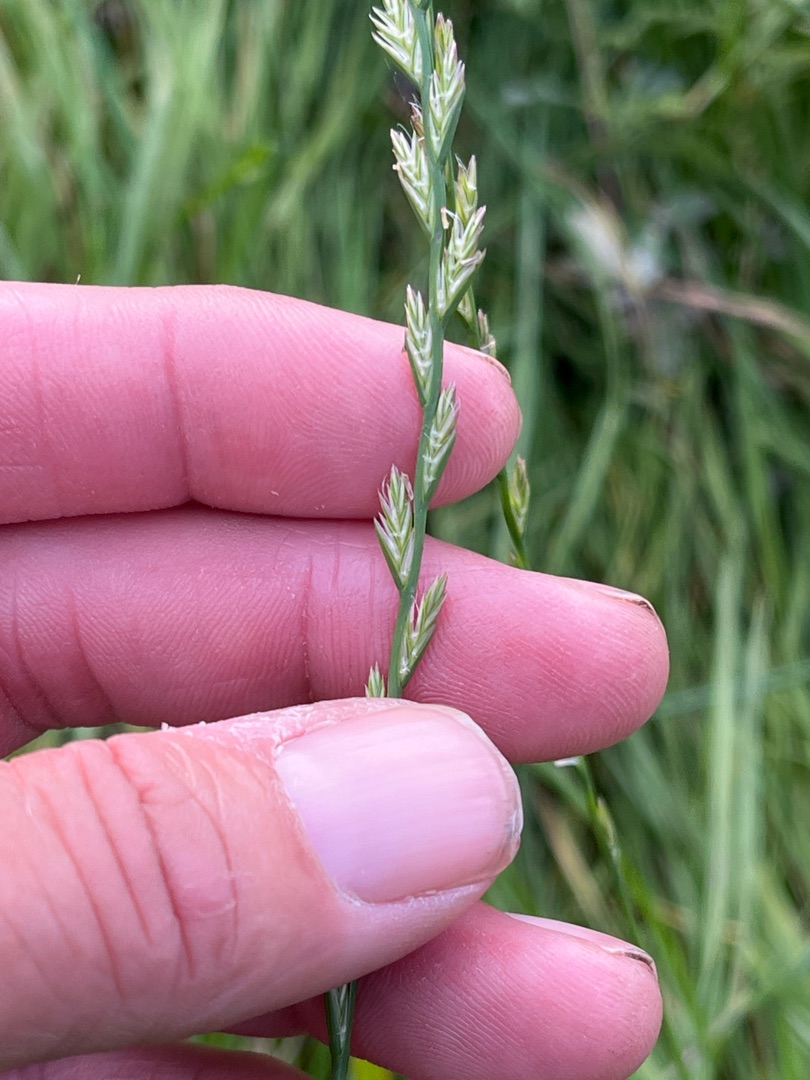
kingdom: Plantae
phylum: Tracheophyta
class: Liliopsida
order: Poales
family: Poaceae
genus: Lolium
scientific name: Lolium perenne
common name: Almindelig rajgræs
